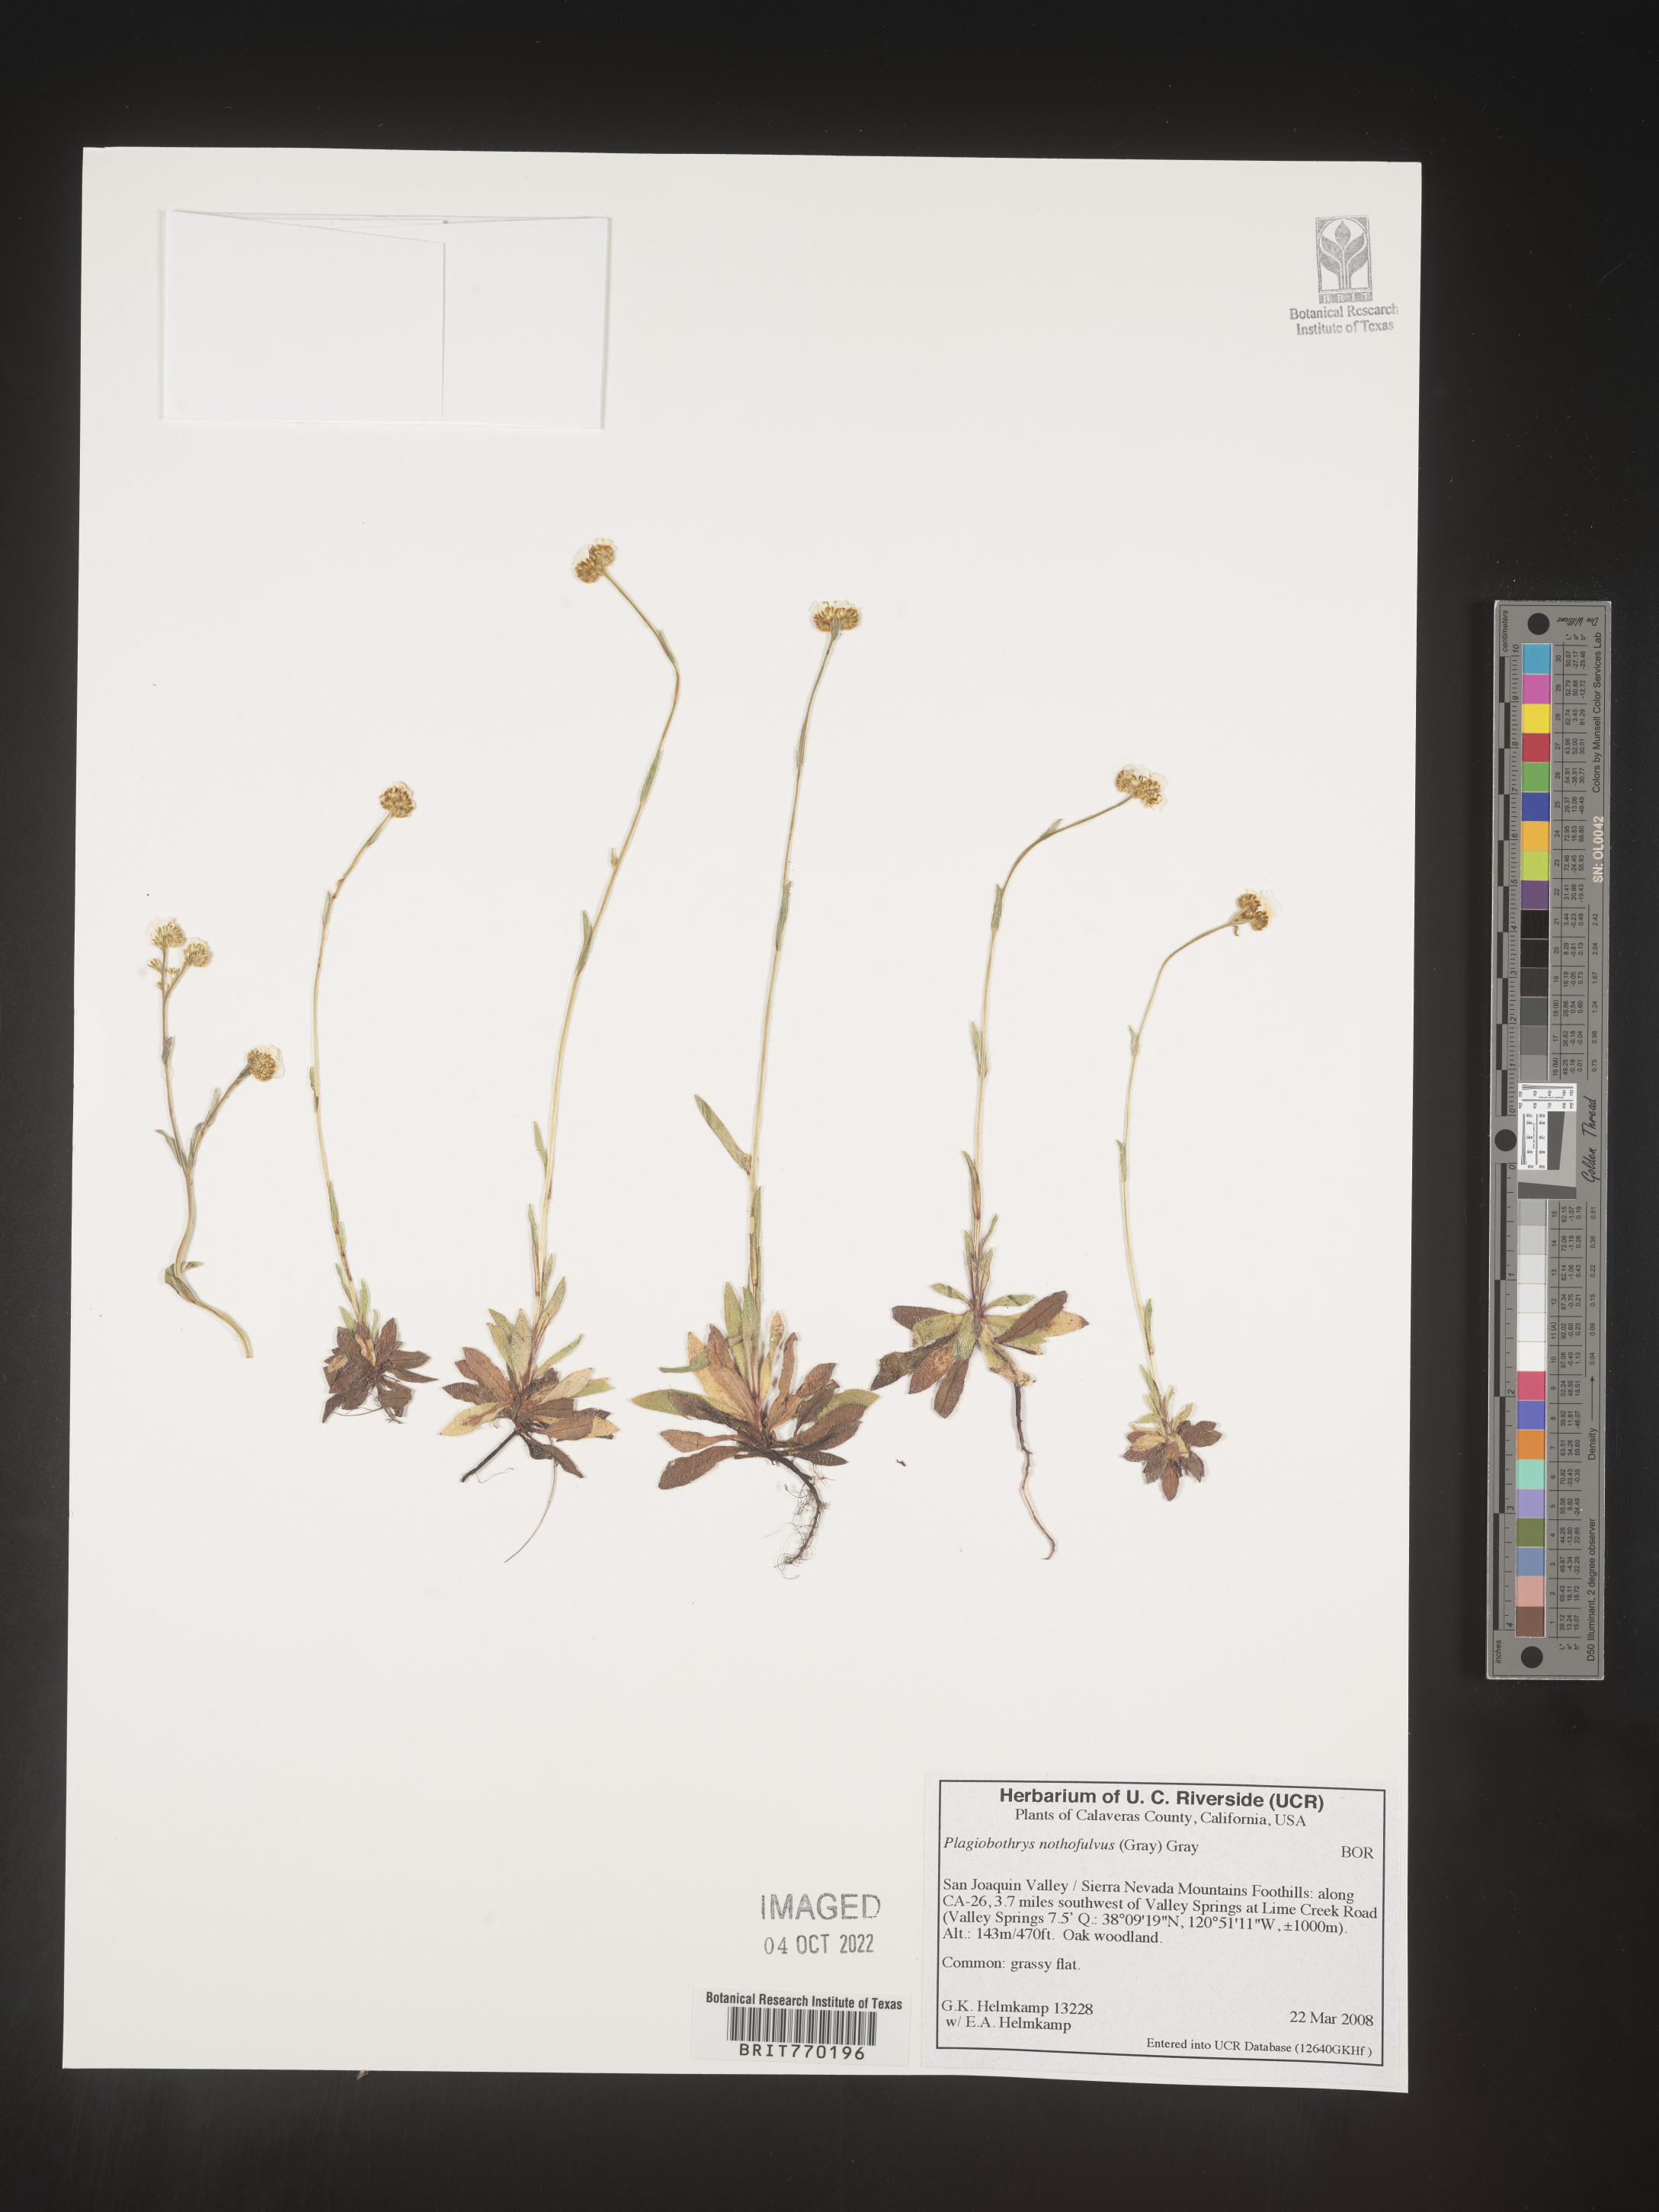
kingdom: Plantae
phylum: Tracheophyta
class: Magnoliopsida
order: Boraginales
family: Boraginaceae
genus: Plagiobothrys
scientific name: Plagiobothrys
